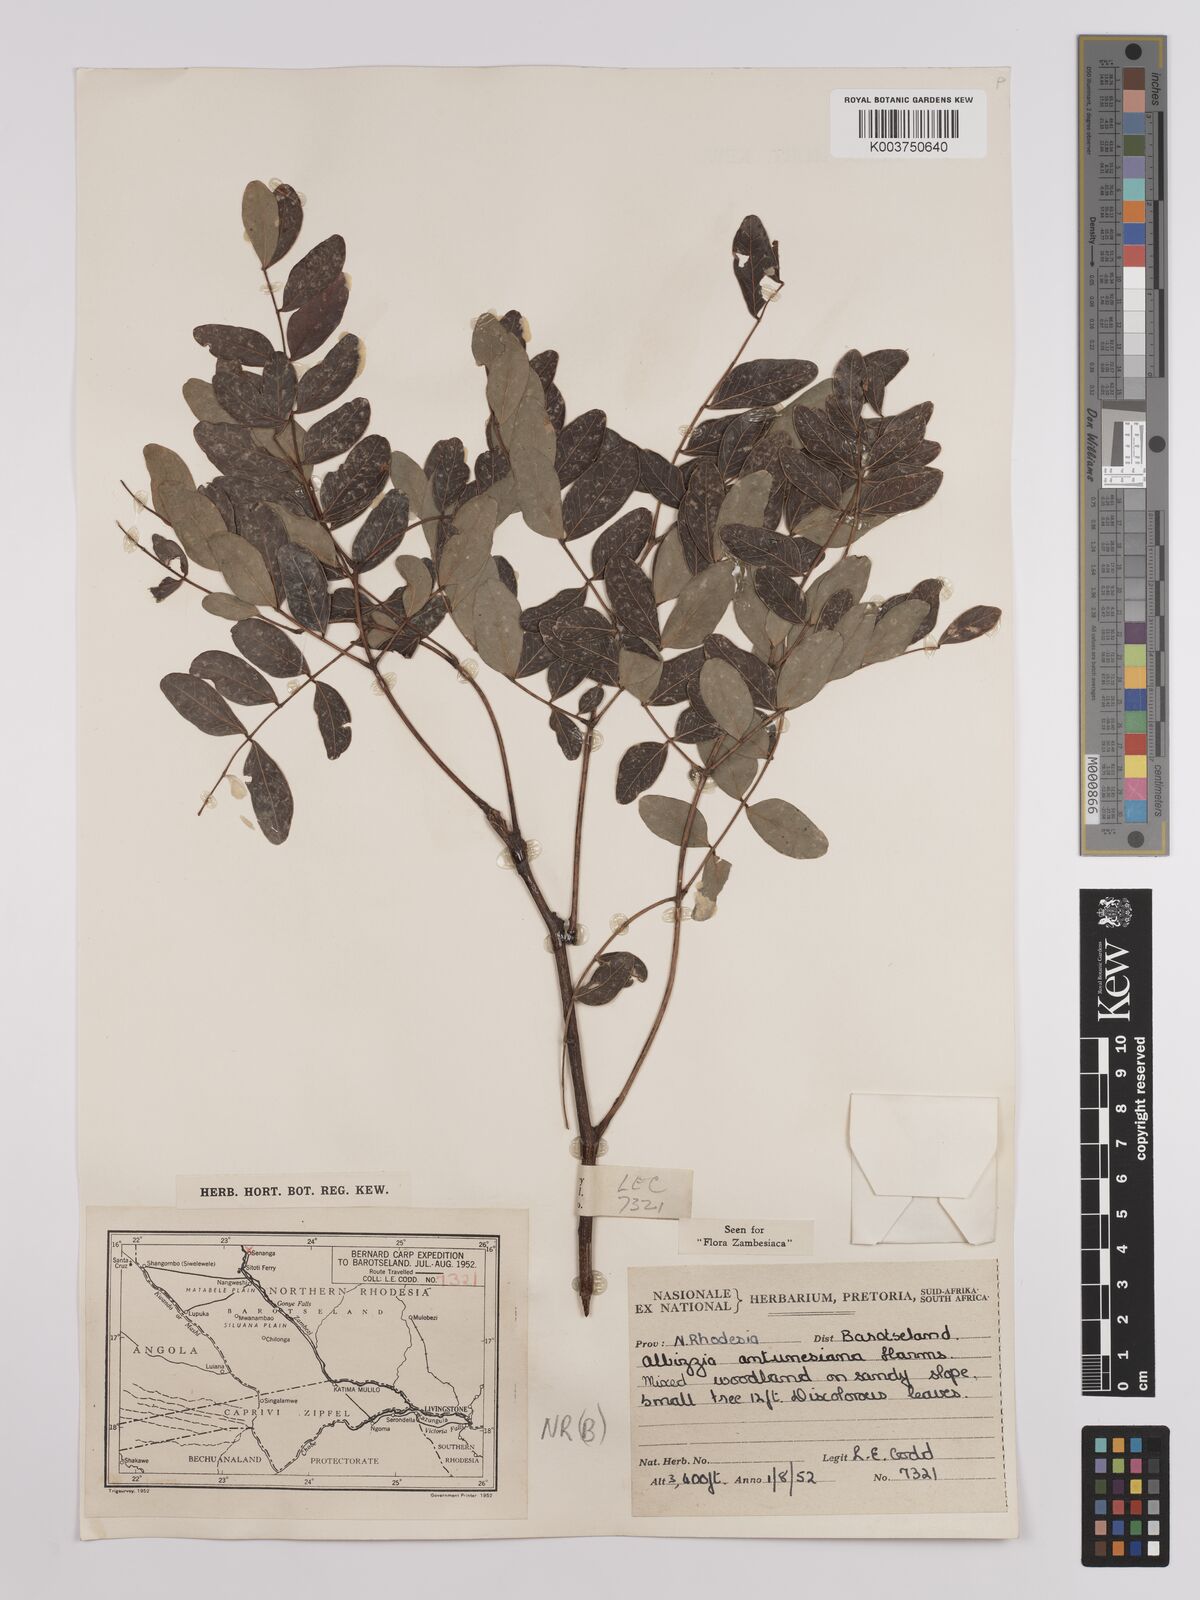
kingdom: Plantae
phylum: Tracheophyta
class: Magnoliopsida
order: Fabales
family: Fabaceae
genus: Albizia
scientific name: Albizia antunesiana
